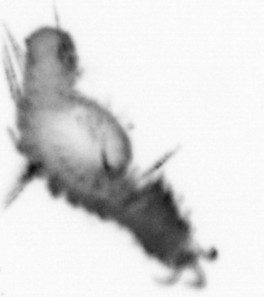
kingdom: Animalia
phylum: Annelida
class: Polychaeta
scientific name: Polychaeta
